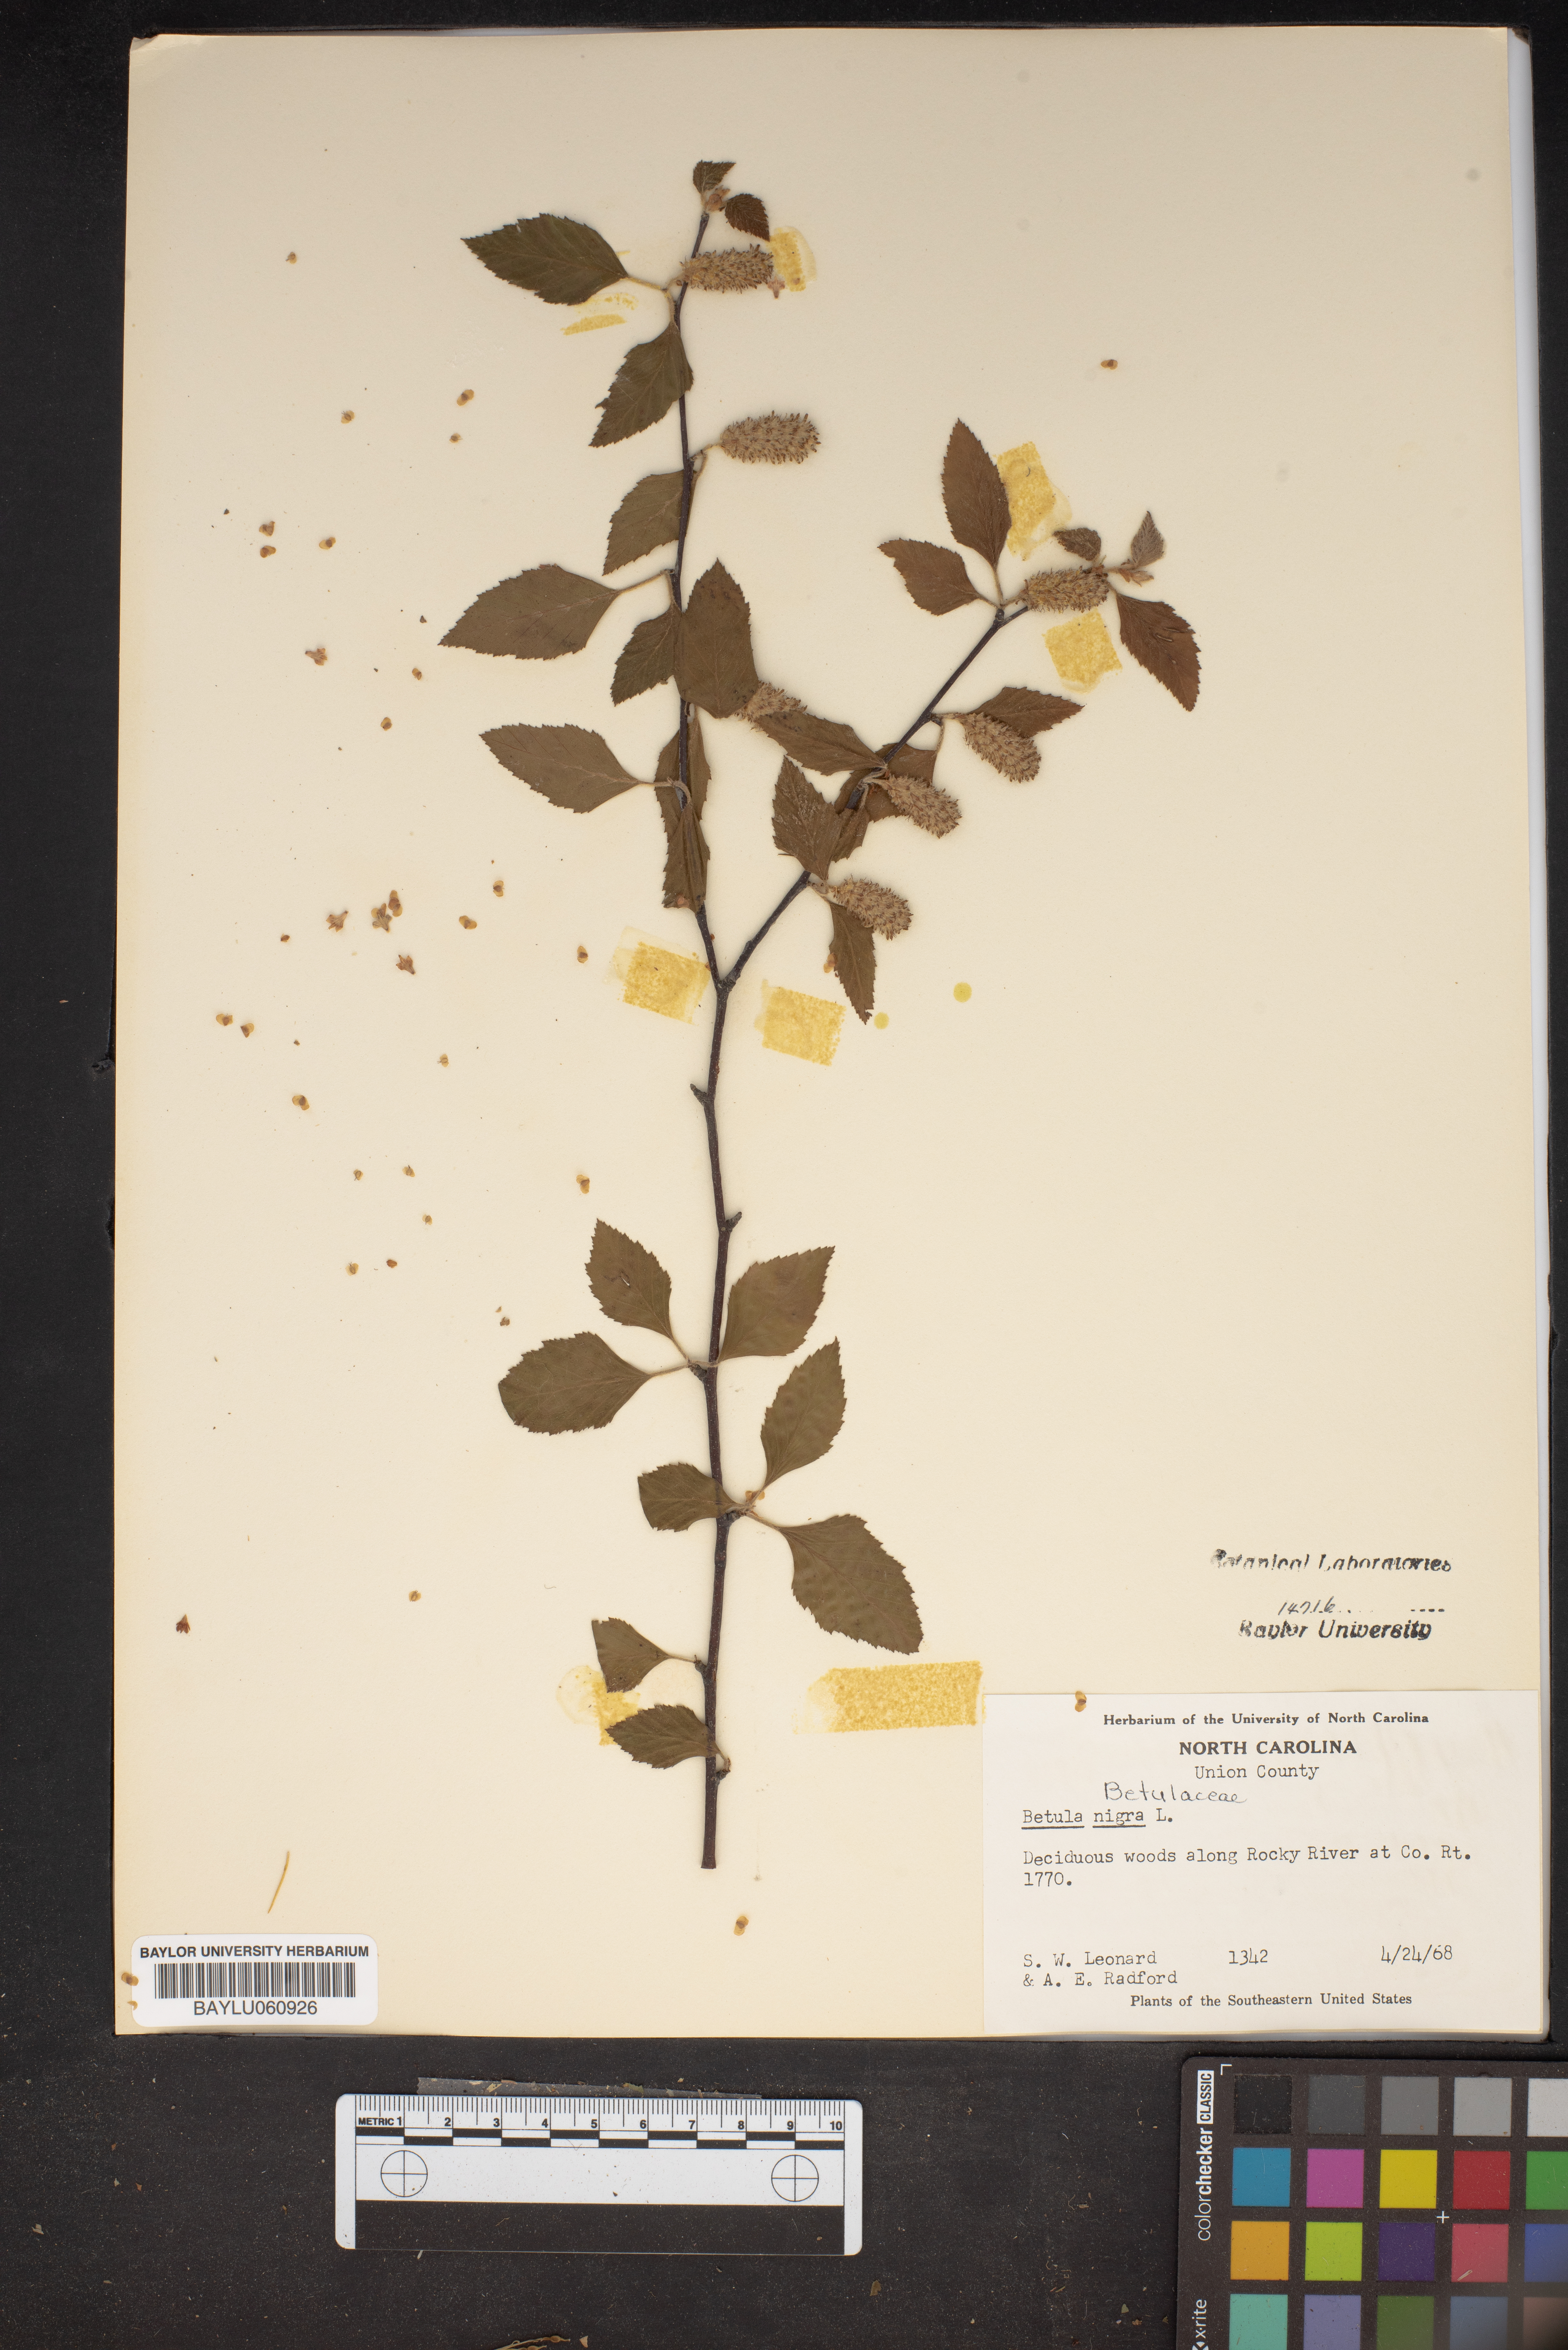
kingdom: Plantae
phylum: Tracheophyta
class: Magnoliopsida
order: Fagales
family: Betulaceae
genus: Betula
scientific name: Betula nigra
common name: Black birch
